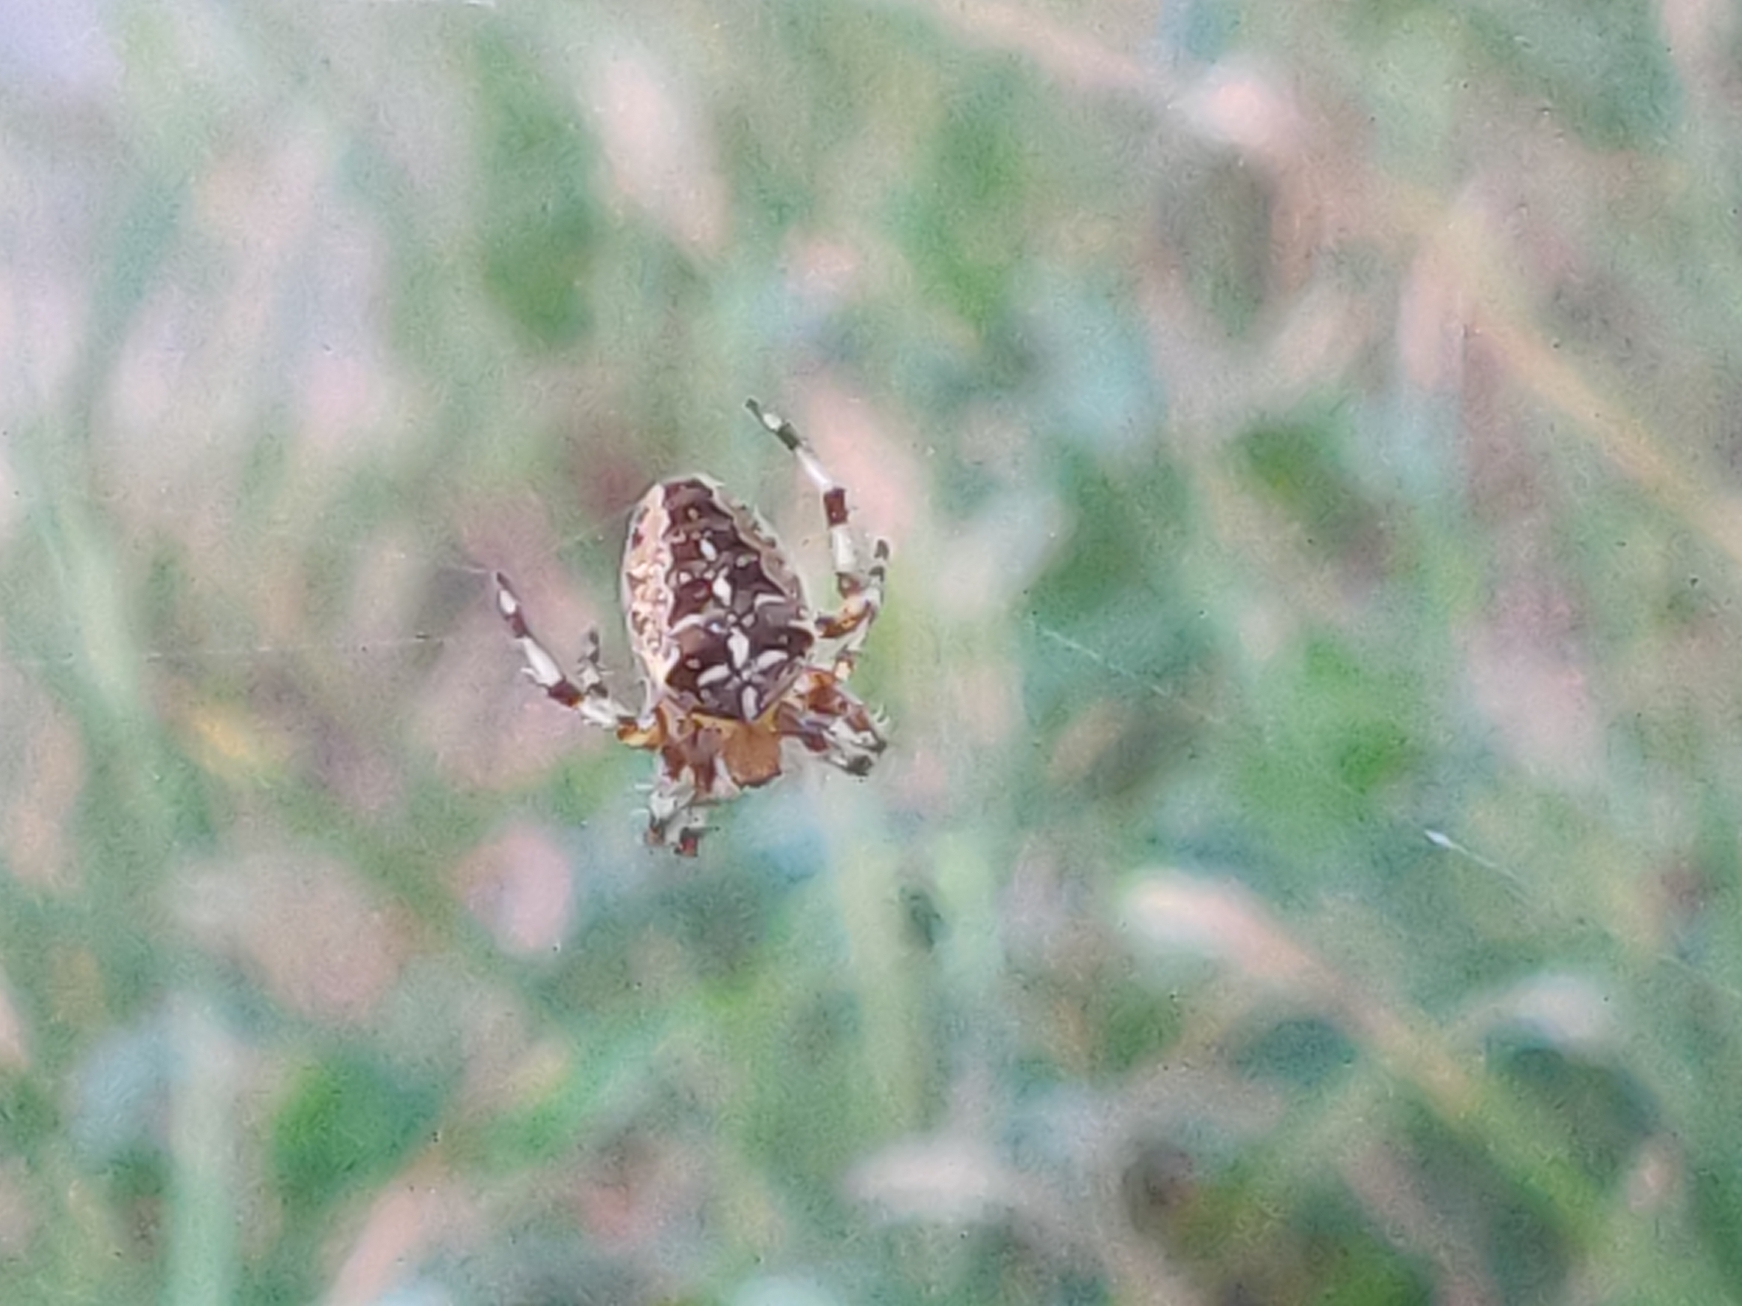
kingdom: Animalia
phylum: Arthropoda
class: Arachnida
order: Araneae
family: Araneidae
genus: Araneus
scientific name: Araneus diadematus
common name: Korsedderkop
